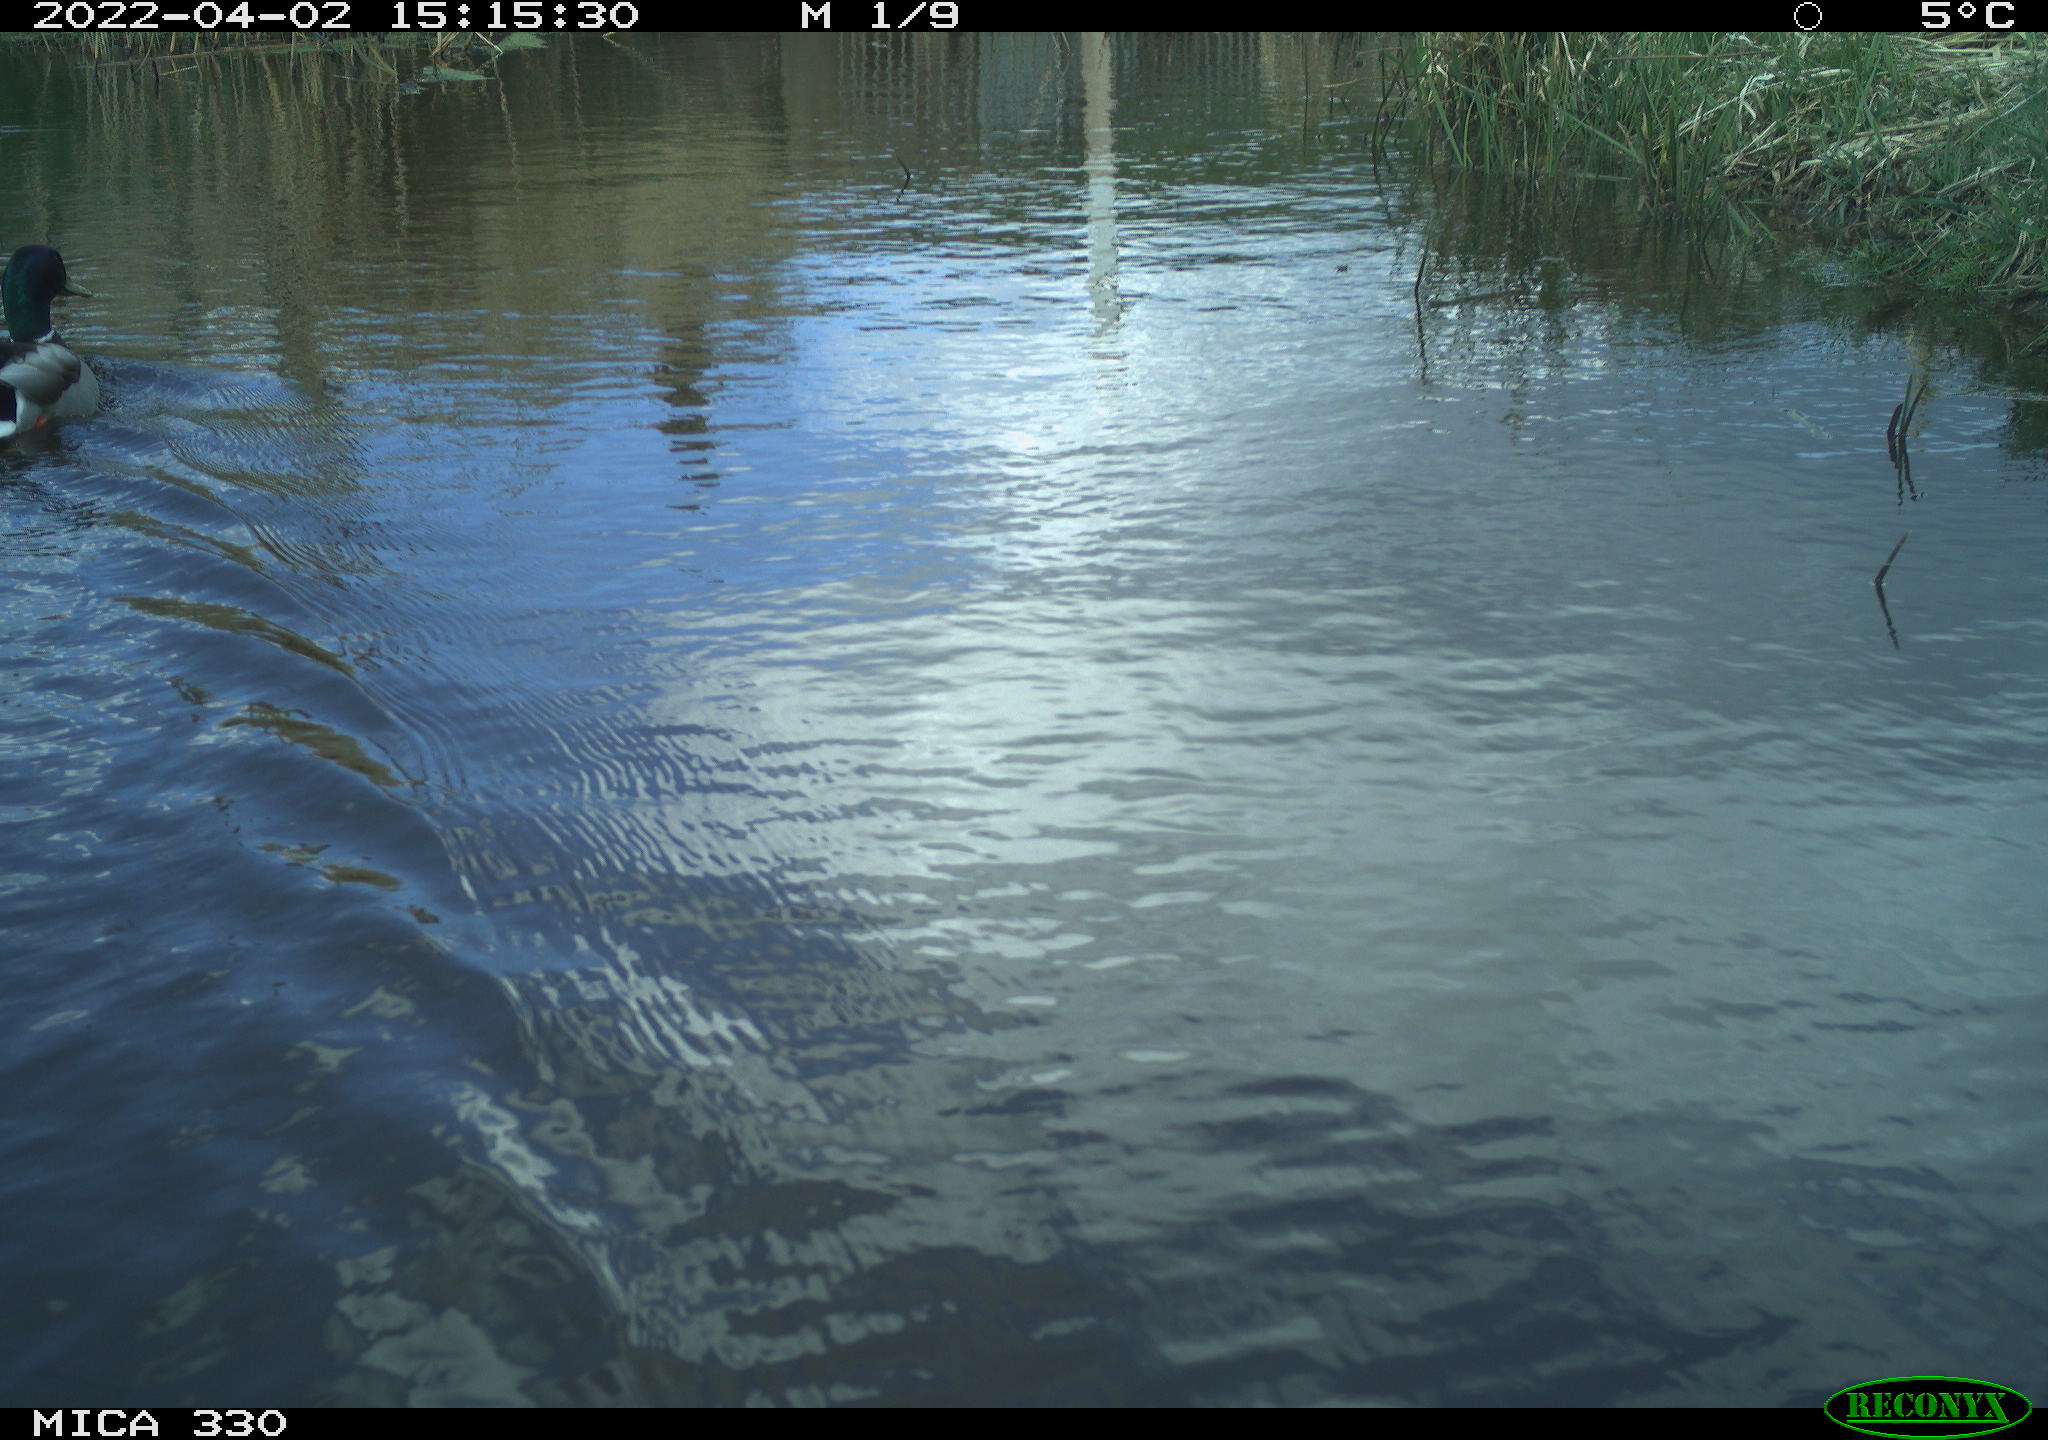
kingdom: Animalia
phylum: Chordata
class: Aves
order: Anseriformes
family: Anatidae
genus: Anas
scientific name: Anas platyrhynchos
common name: Mallard
